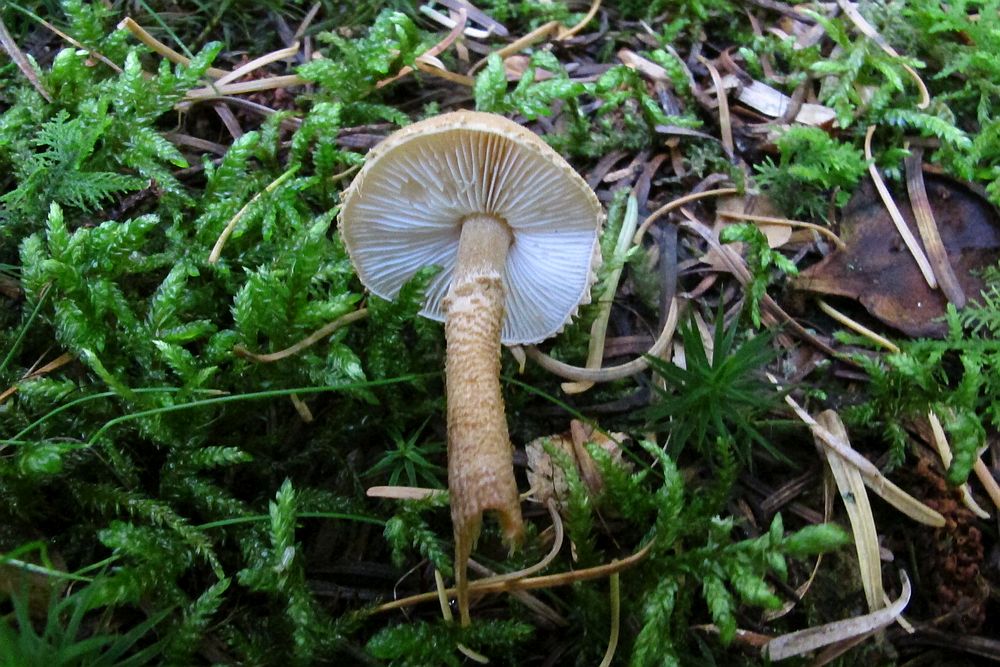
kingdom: Fungi
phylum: Basidiomycota
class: Agaricomycetes
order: Agaricales
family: Tricholomataceae
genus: Cystoderma
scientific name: Cystoderma amianthinum
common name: okkergul grynhat
